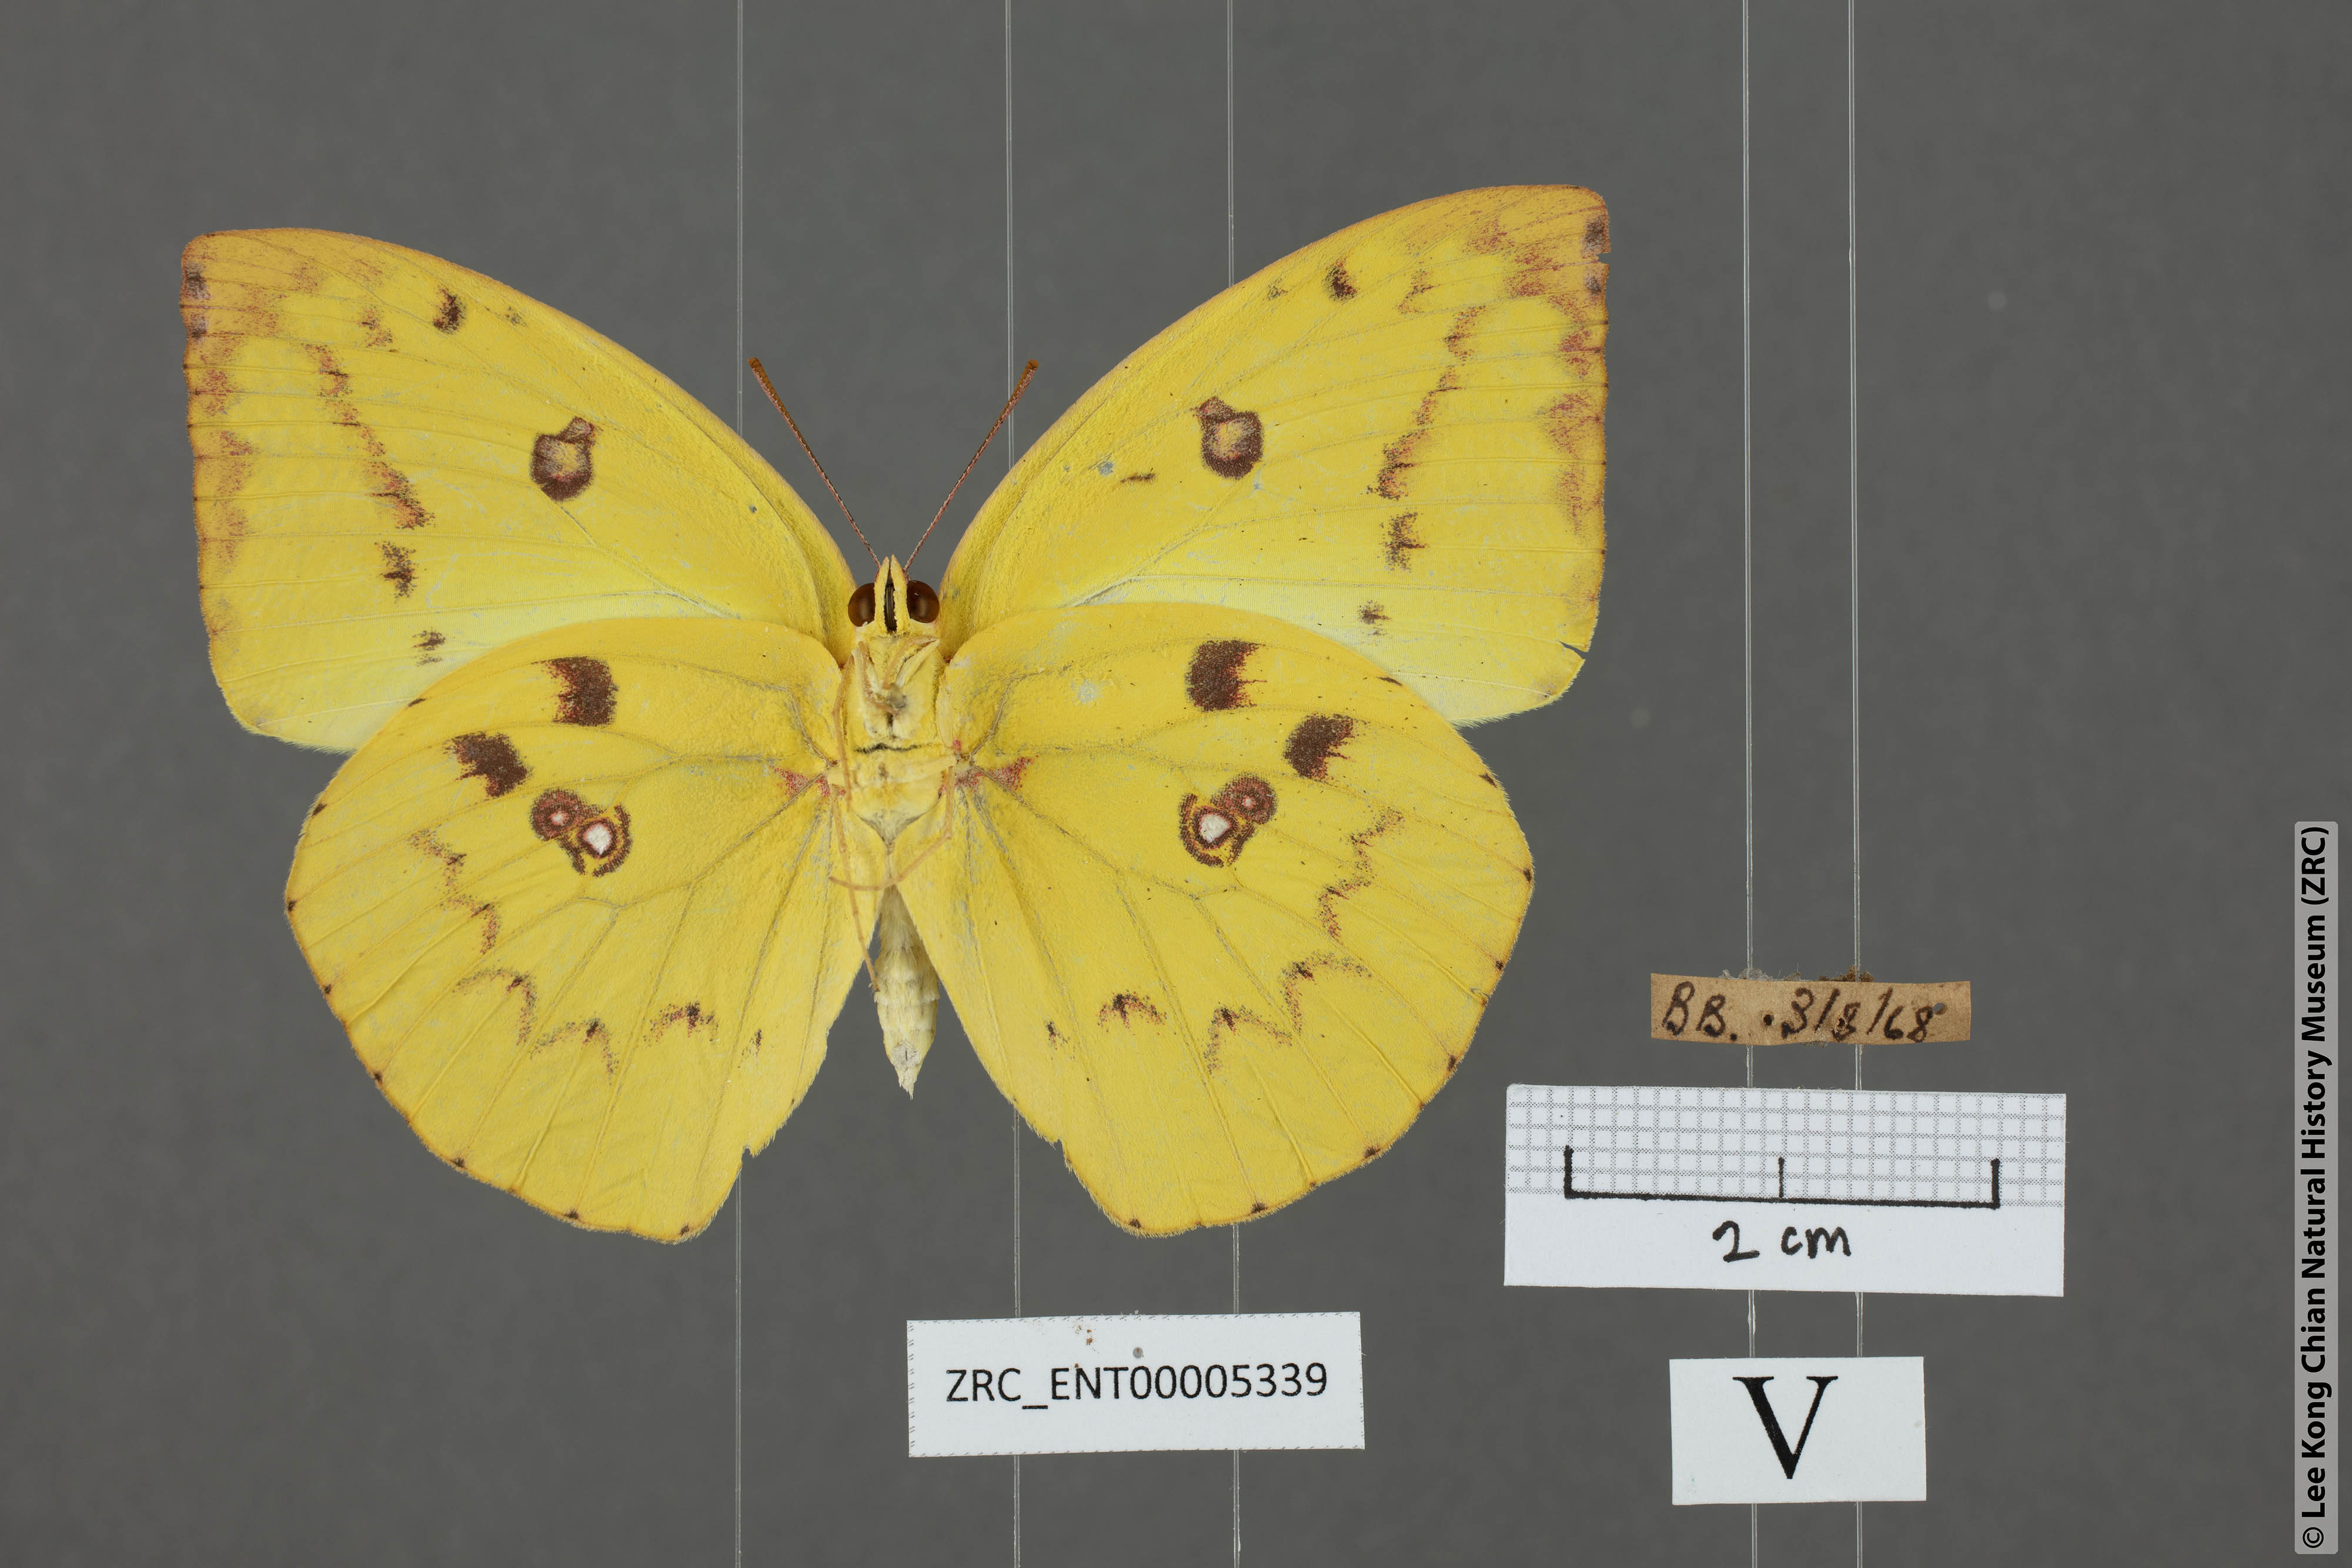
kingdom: Animalia
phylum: Arthropoda
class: Insecta
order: Lepidoptera
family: Pieridae
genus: Catopsilia
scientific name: Catopsilia pomona
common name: Common emigrant
